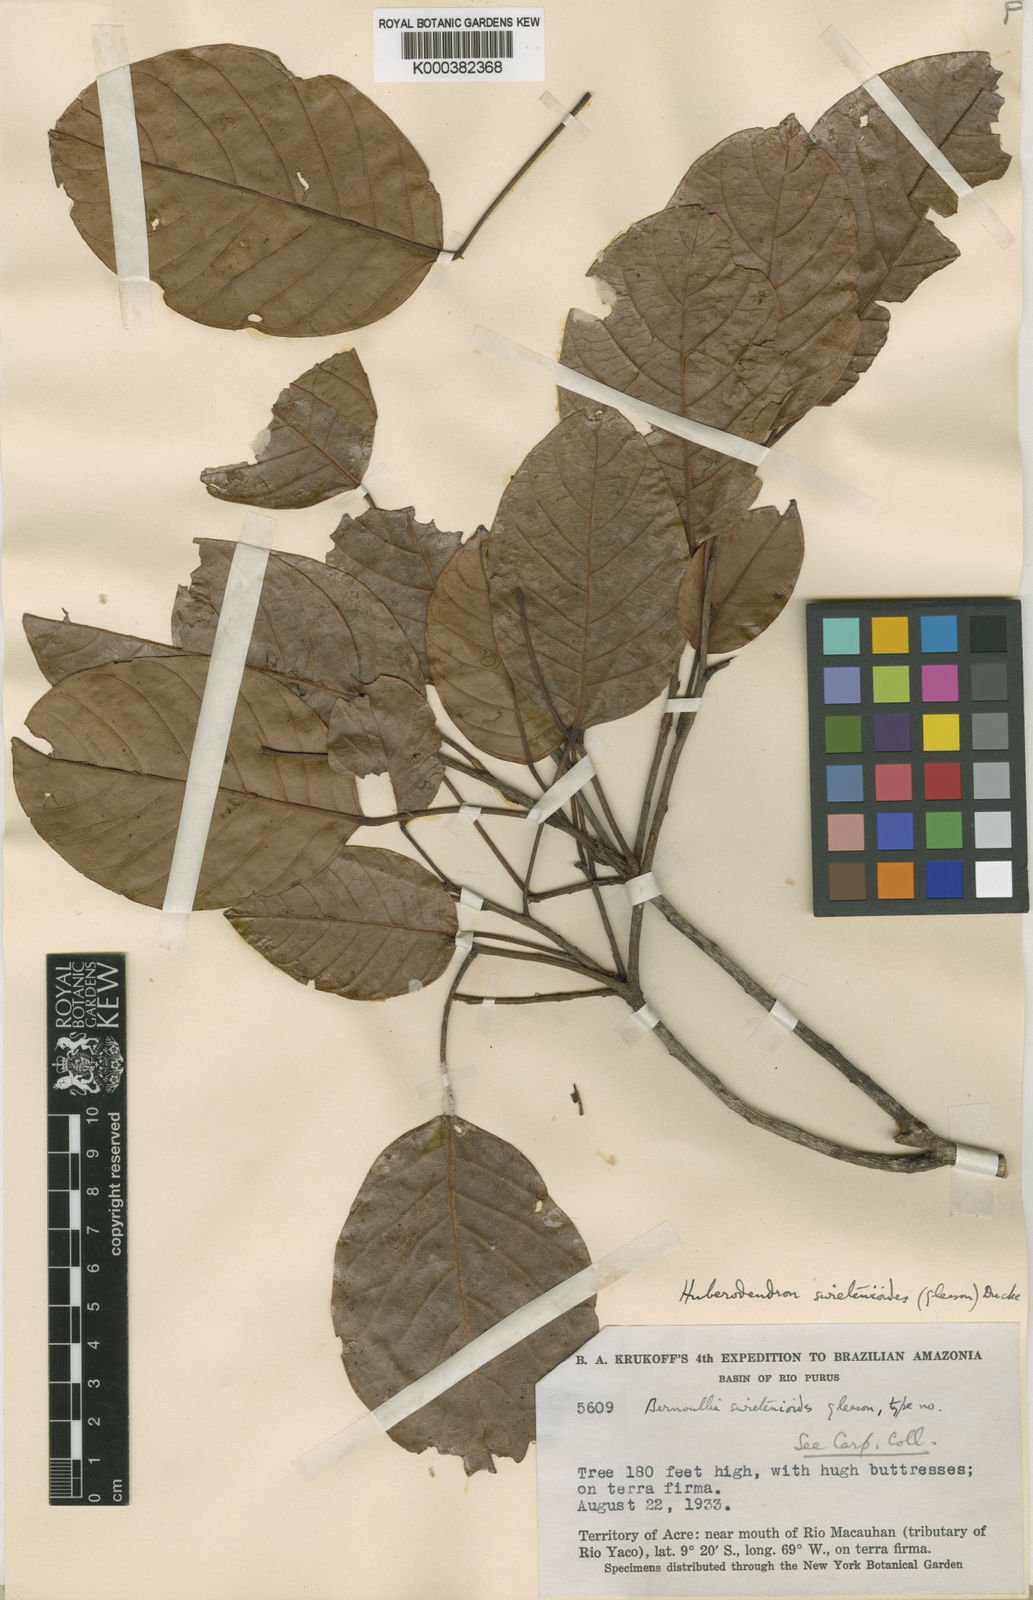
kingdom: Plantae
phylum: Tracheophyta
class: Magnoliopsida
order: Malvales
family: Malvaceae
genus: Huberodendron
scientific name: Huberodendron swietenioides
